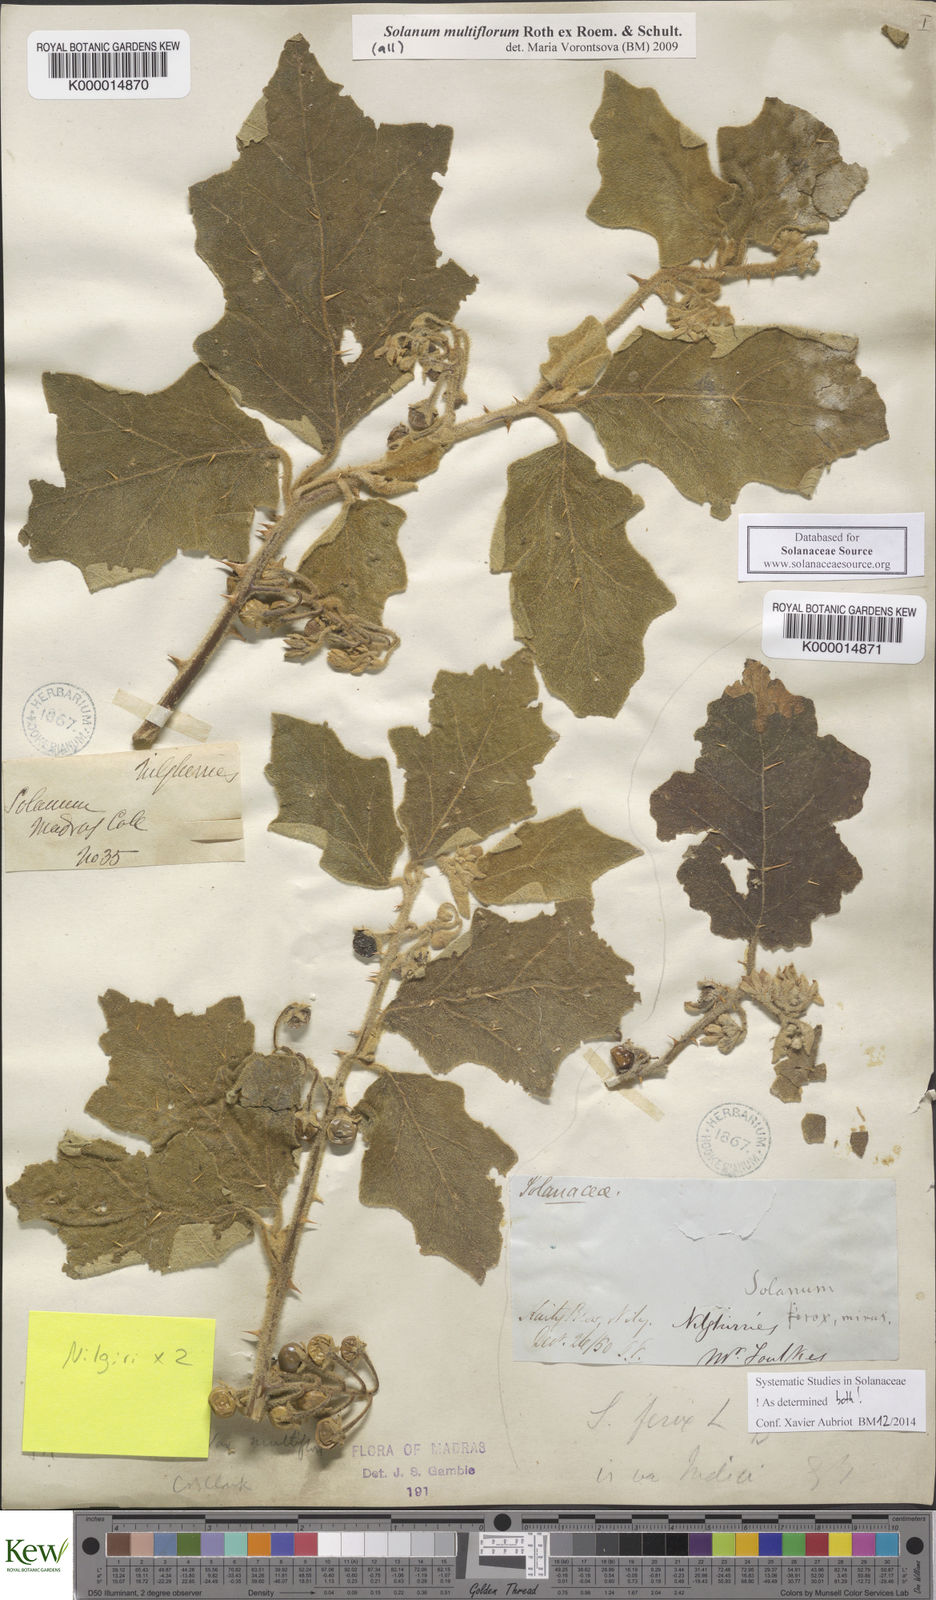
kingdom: Plantae
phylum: Tracheophyta
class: Magnoliopsida
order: Solanales
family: Solanaceae
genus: Solanum
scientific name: Solanum multiflorum
